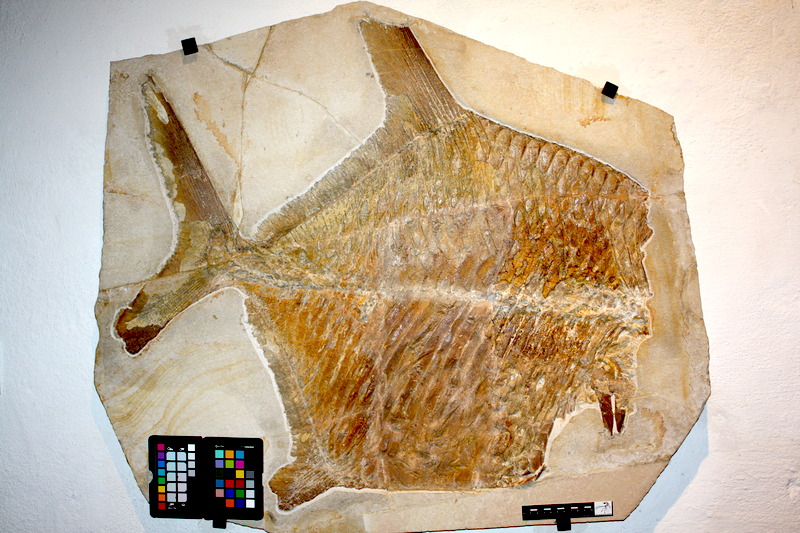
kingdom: Animalia
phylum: Chordata
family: Gyrodontidae
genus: Gyrodus
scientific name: Gyrodus circularis
